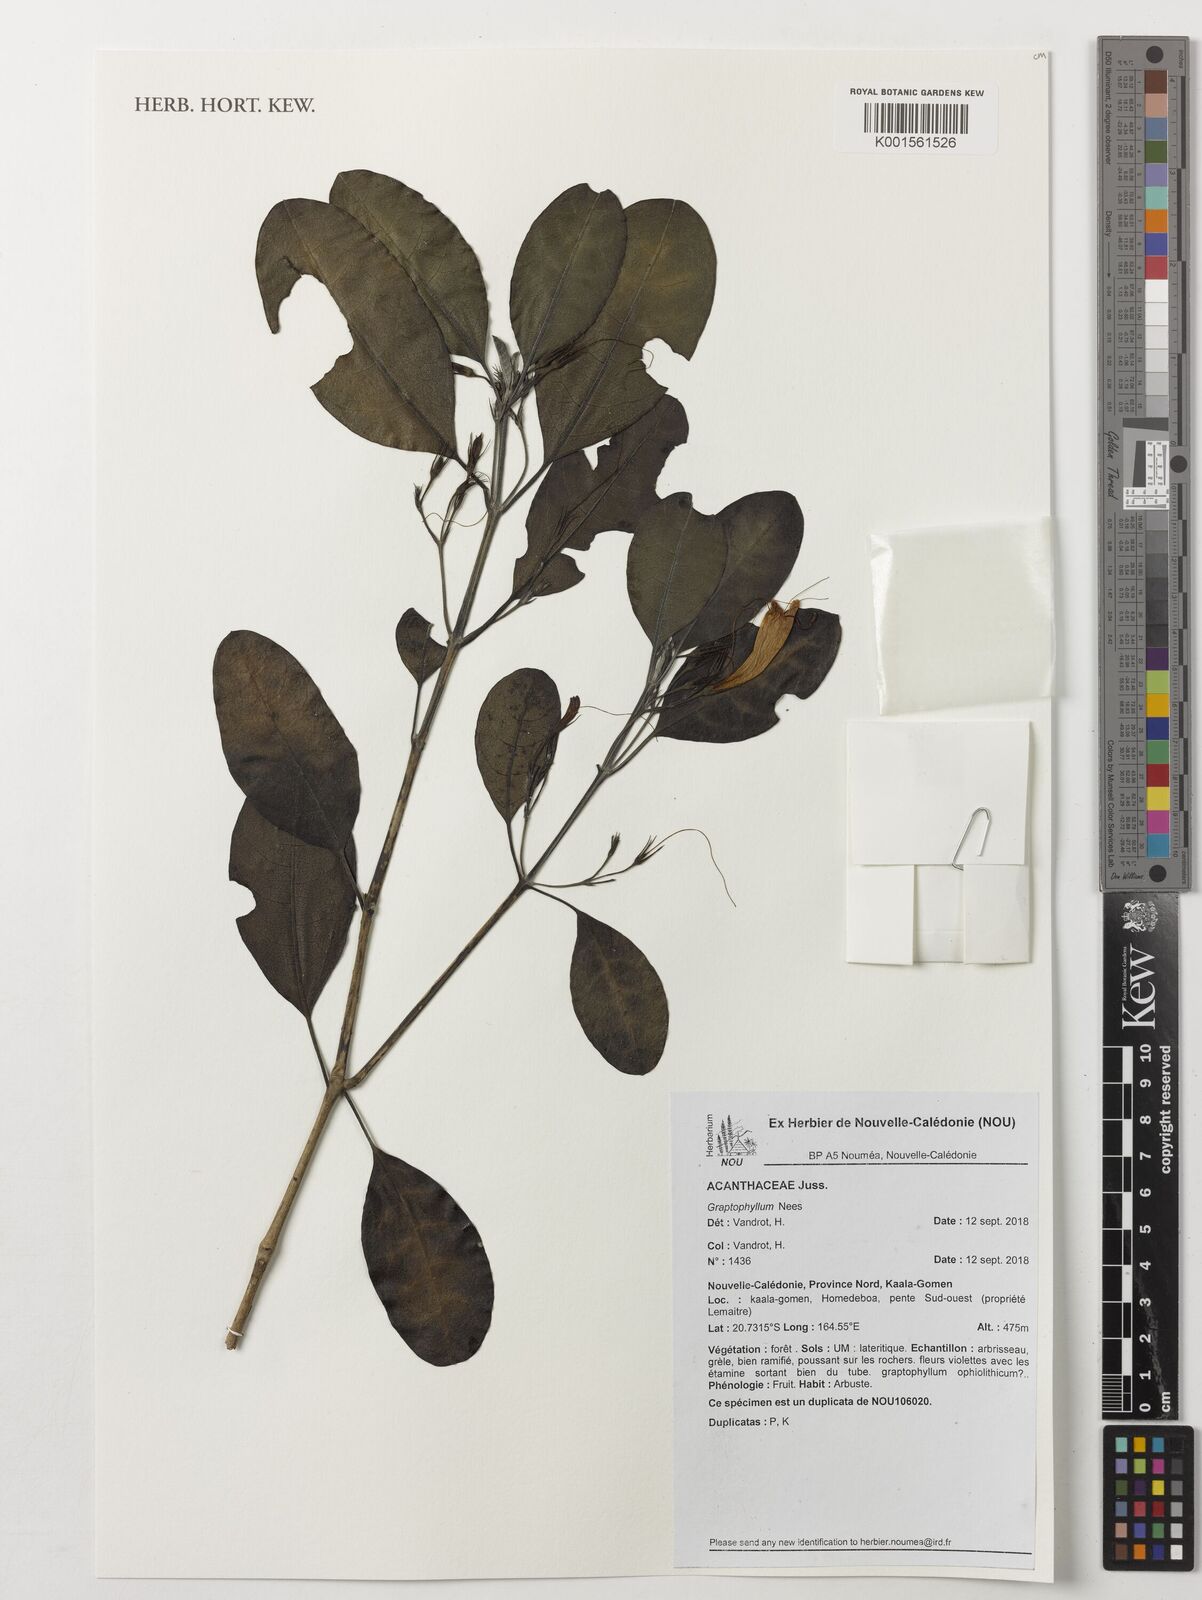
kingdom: Plantae
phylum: Tracheophyta
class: Magnoliopsida
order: Lamiales
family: Acanthaceae
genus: Graptophyllum
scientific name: Graptophyllum
